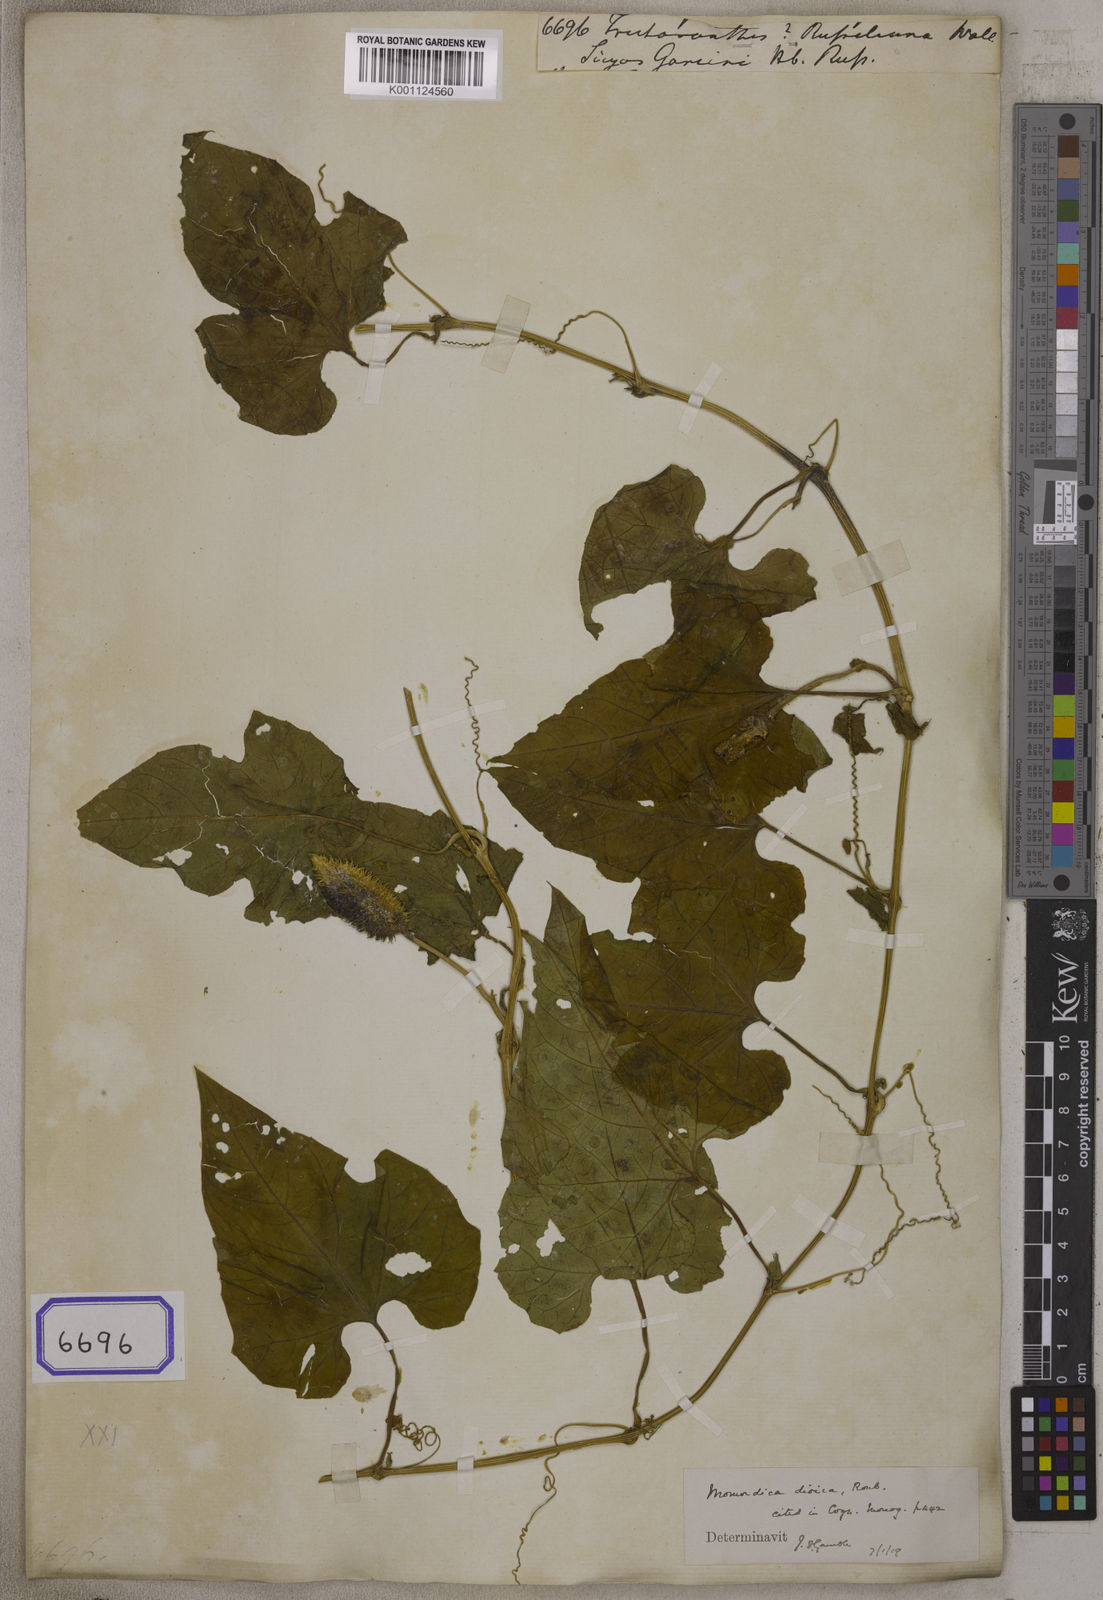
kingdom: Plantae
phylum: Tracheophyta
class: Magnoliopsida
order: Cucurbitales
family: Cucurbitaceae
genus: Trichosanthes
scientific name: Trichosanthes
